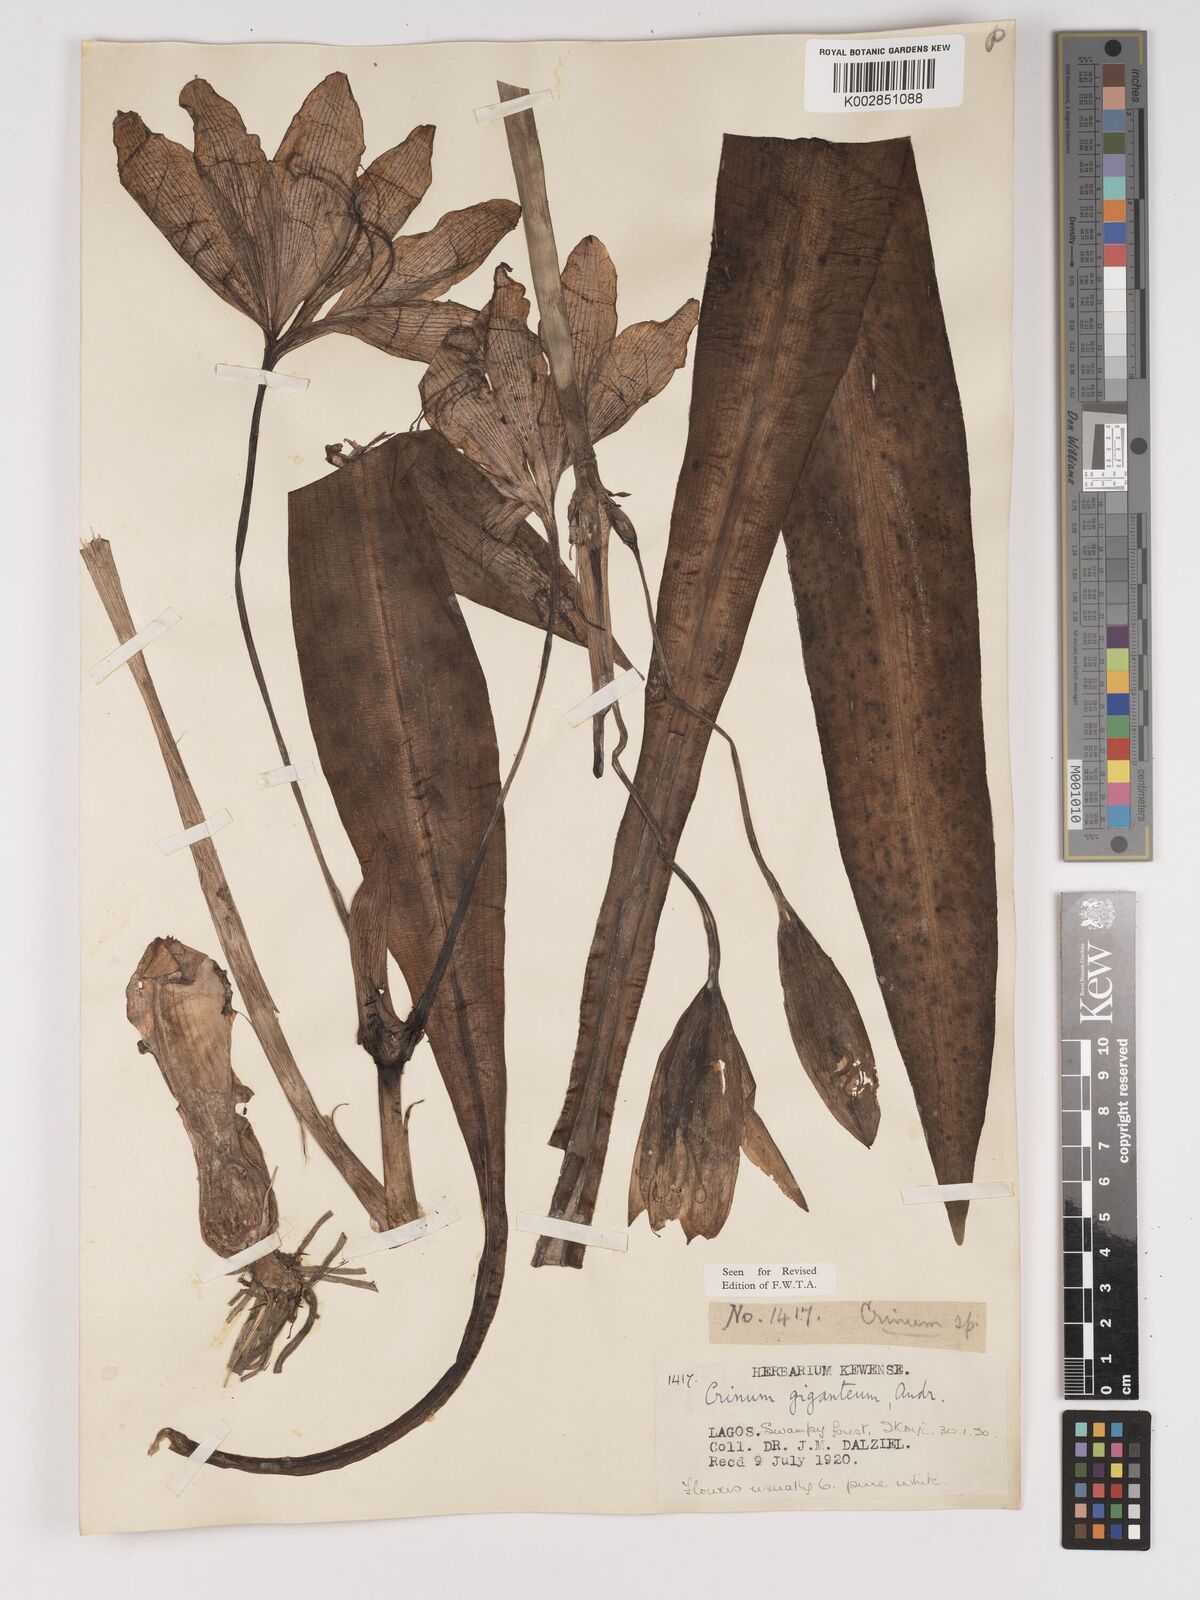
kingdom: Plantae
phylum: Tracheophyta
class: Liliopsida
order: Asparagales
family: Amaryllidaceae
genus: Crinum
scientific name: Crinum jagus
